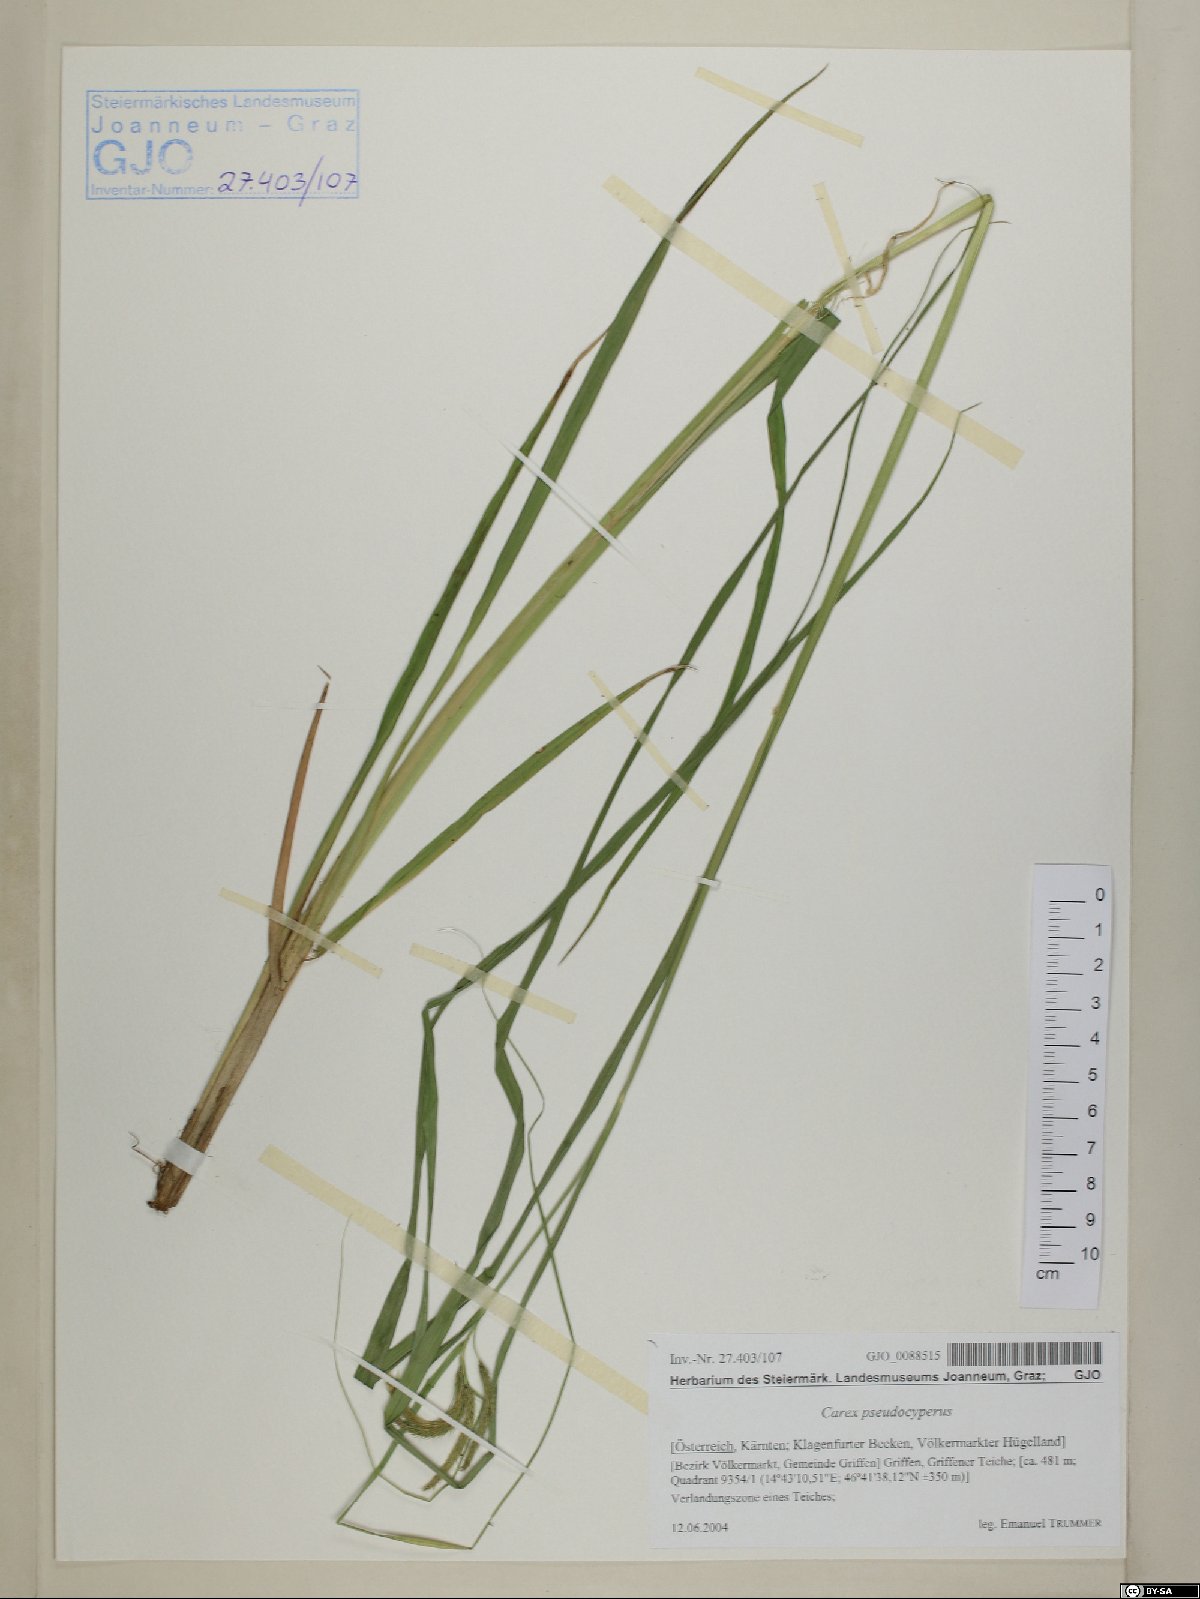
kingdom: Plantae
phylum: Tracheophyta
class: Liliopsida
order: Poales
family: Cyperaceae
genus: Carex
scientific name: Carex pseudocyperus
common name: Cyperus sedge
